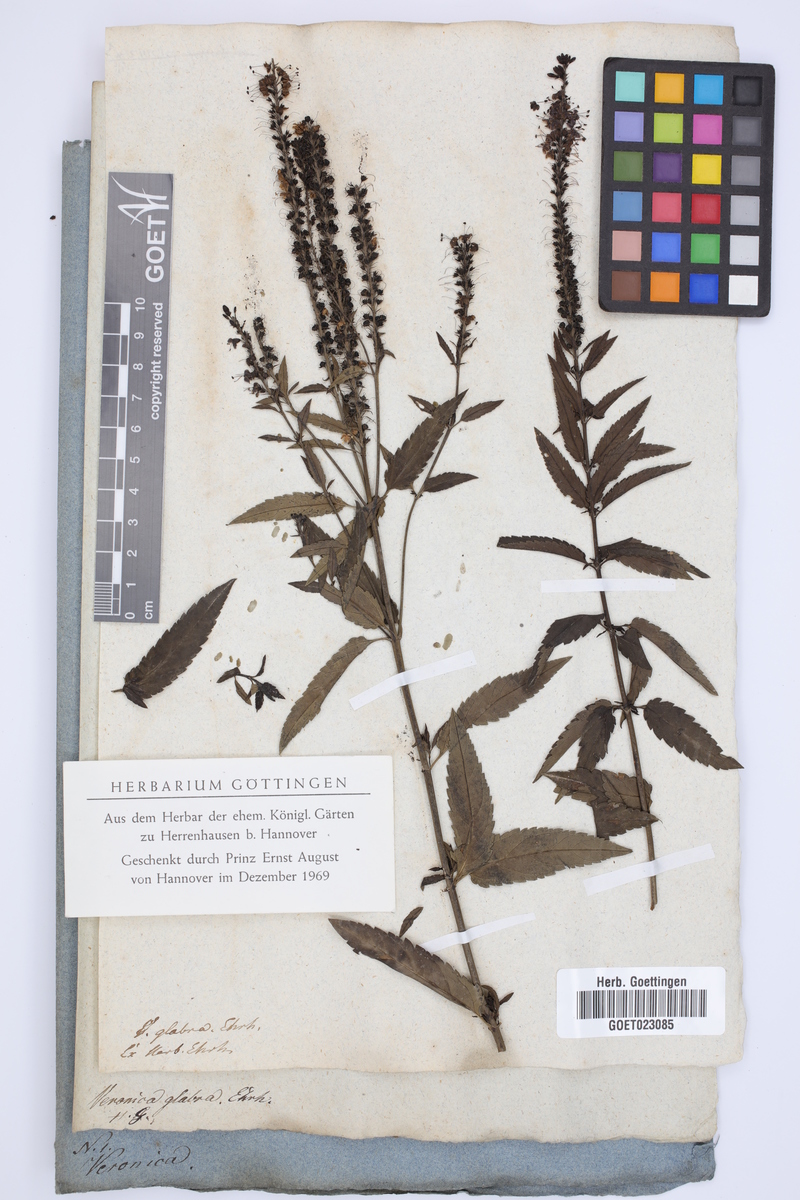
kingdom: Plantae
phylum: Tracheophyta
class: Magnoliopsida
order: Lamiales
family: Plantaginaceae
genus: Veronica
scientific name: Veronica maritima
